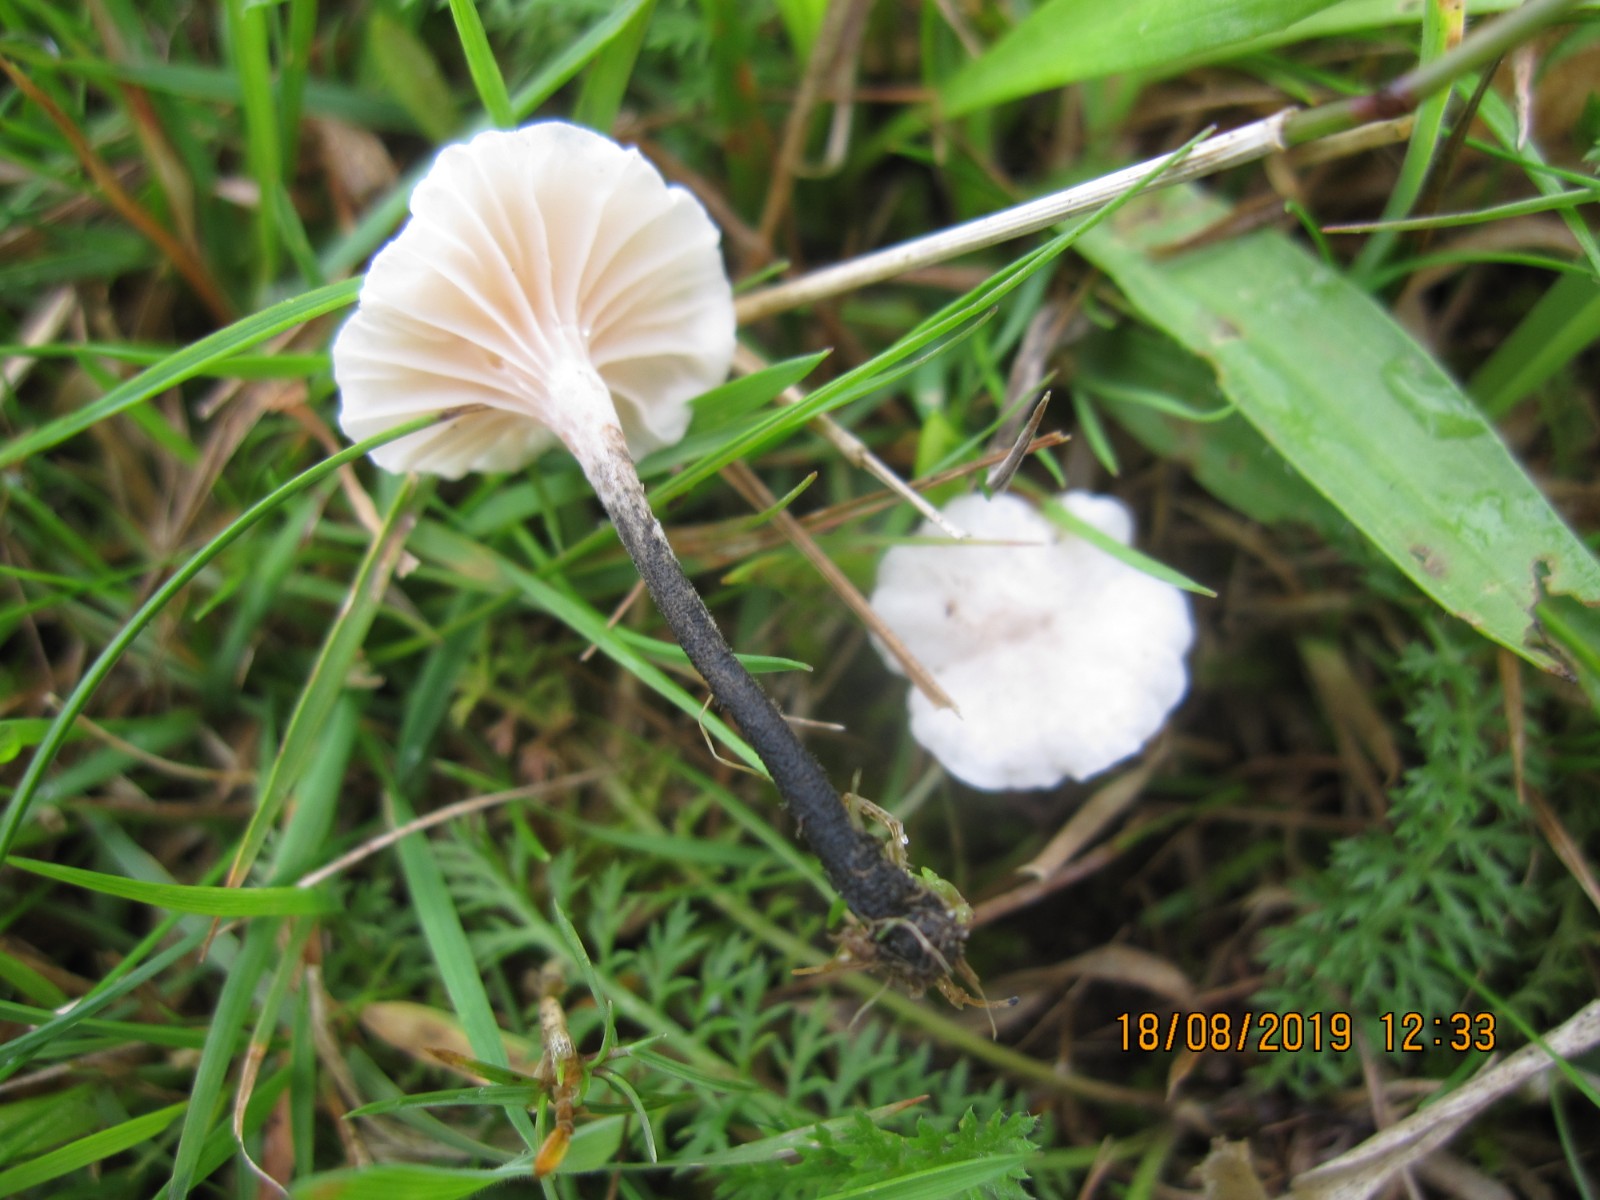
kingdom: Fungi
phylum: Basidiomycota
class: Agaricomycetes
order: Agaricales
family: Omphalotaceae
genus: Marasmiellus
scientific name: Marasmiellus tricolor
